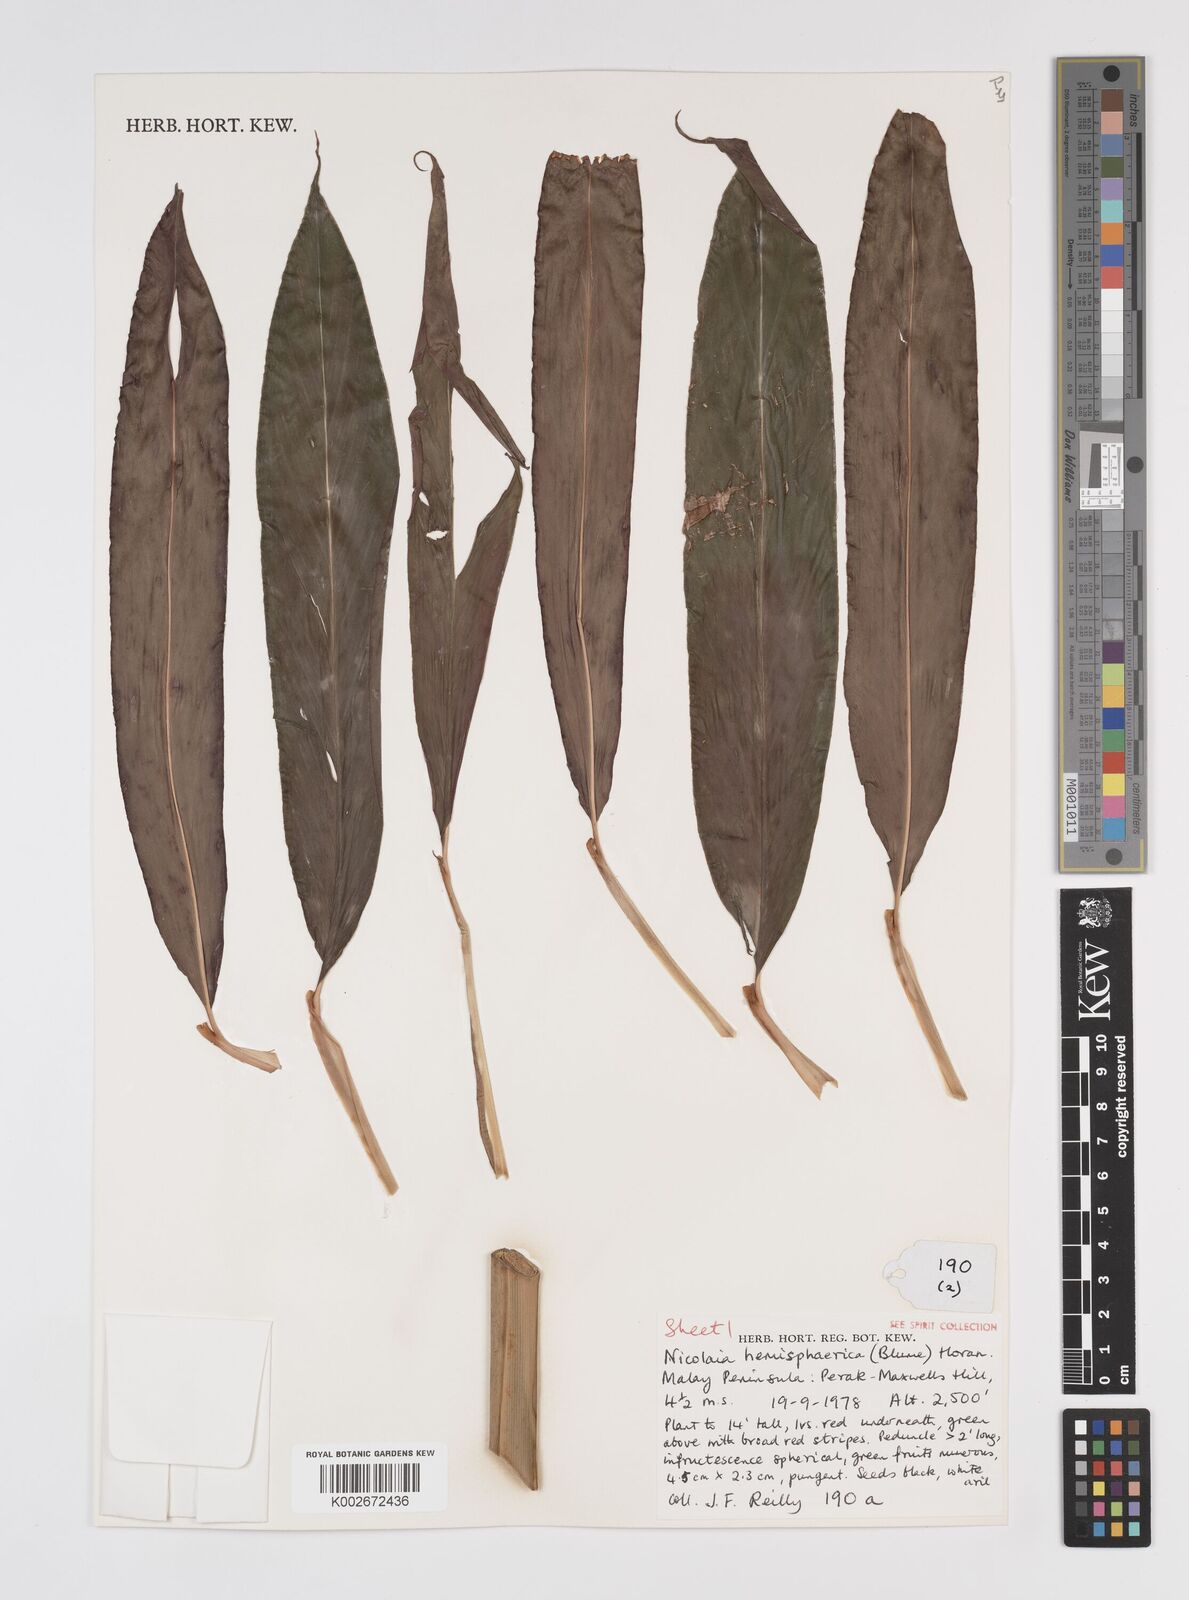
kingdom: Plantae
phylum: Tracheophyta
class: Liliopsida
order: Zingiberales
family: Zingiberaceae
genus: Etlingera
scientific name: Etlingera fulgens
